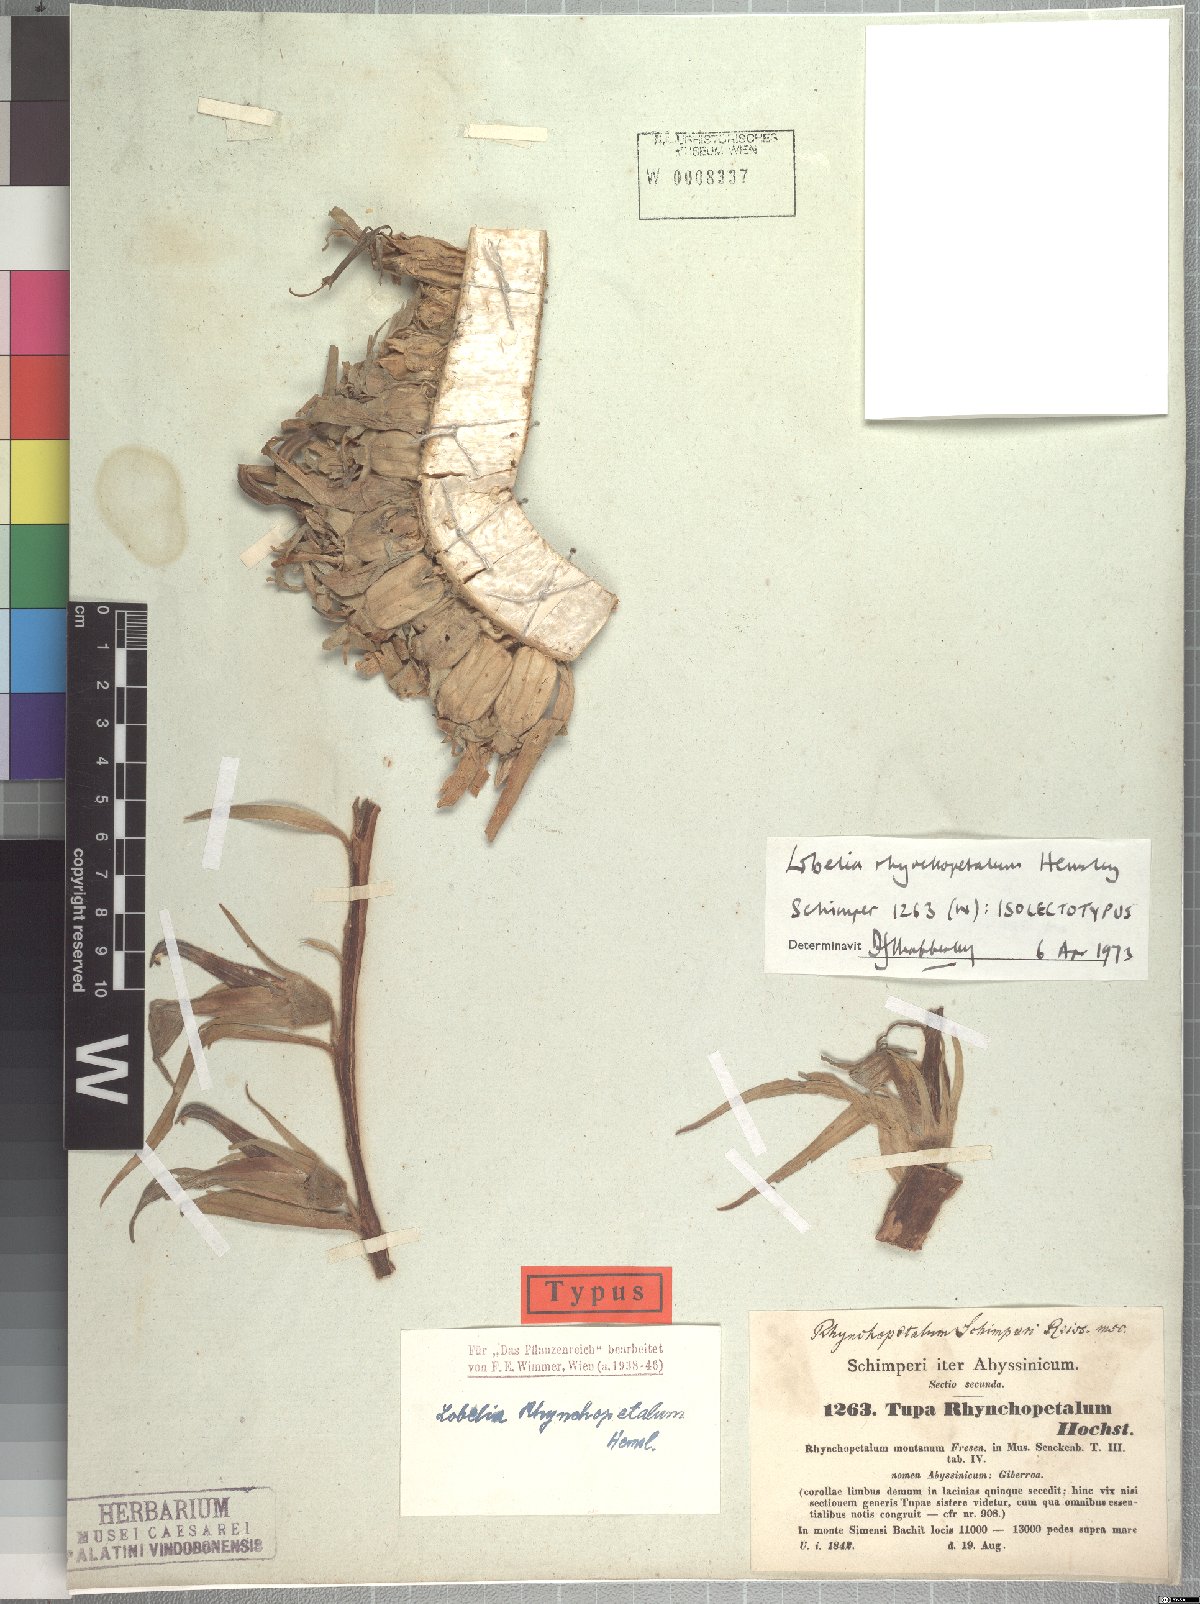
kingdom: Plantae
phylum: Tracheophyta
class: Magnoliopsida
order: Asterales
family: Campanulaceae
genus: Lobelia
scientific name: Lobelia rhynchopetalum
